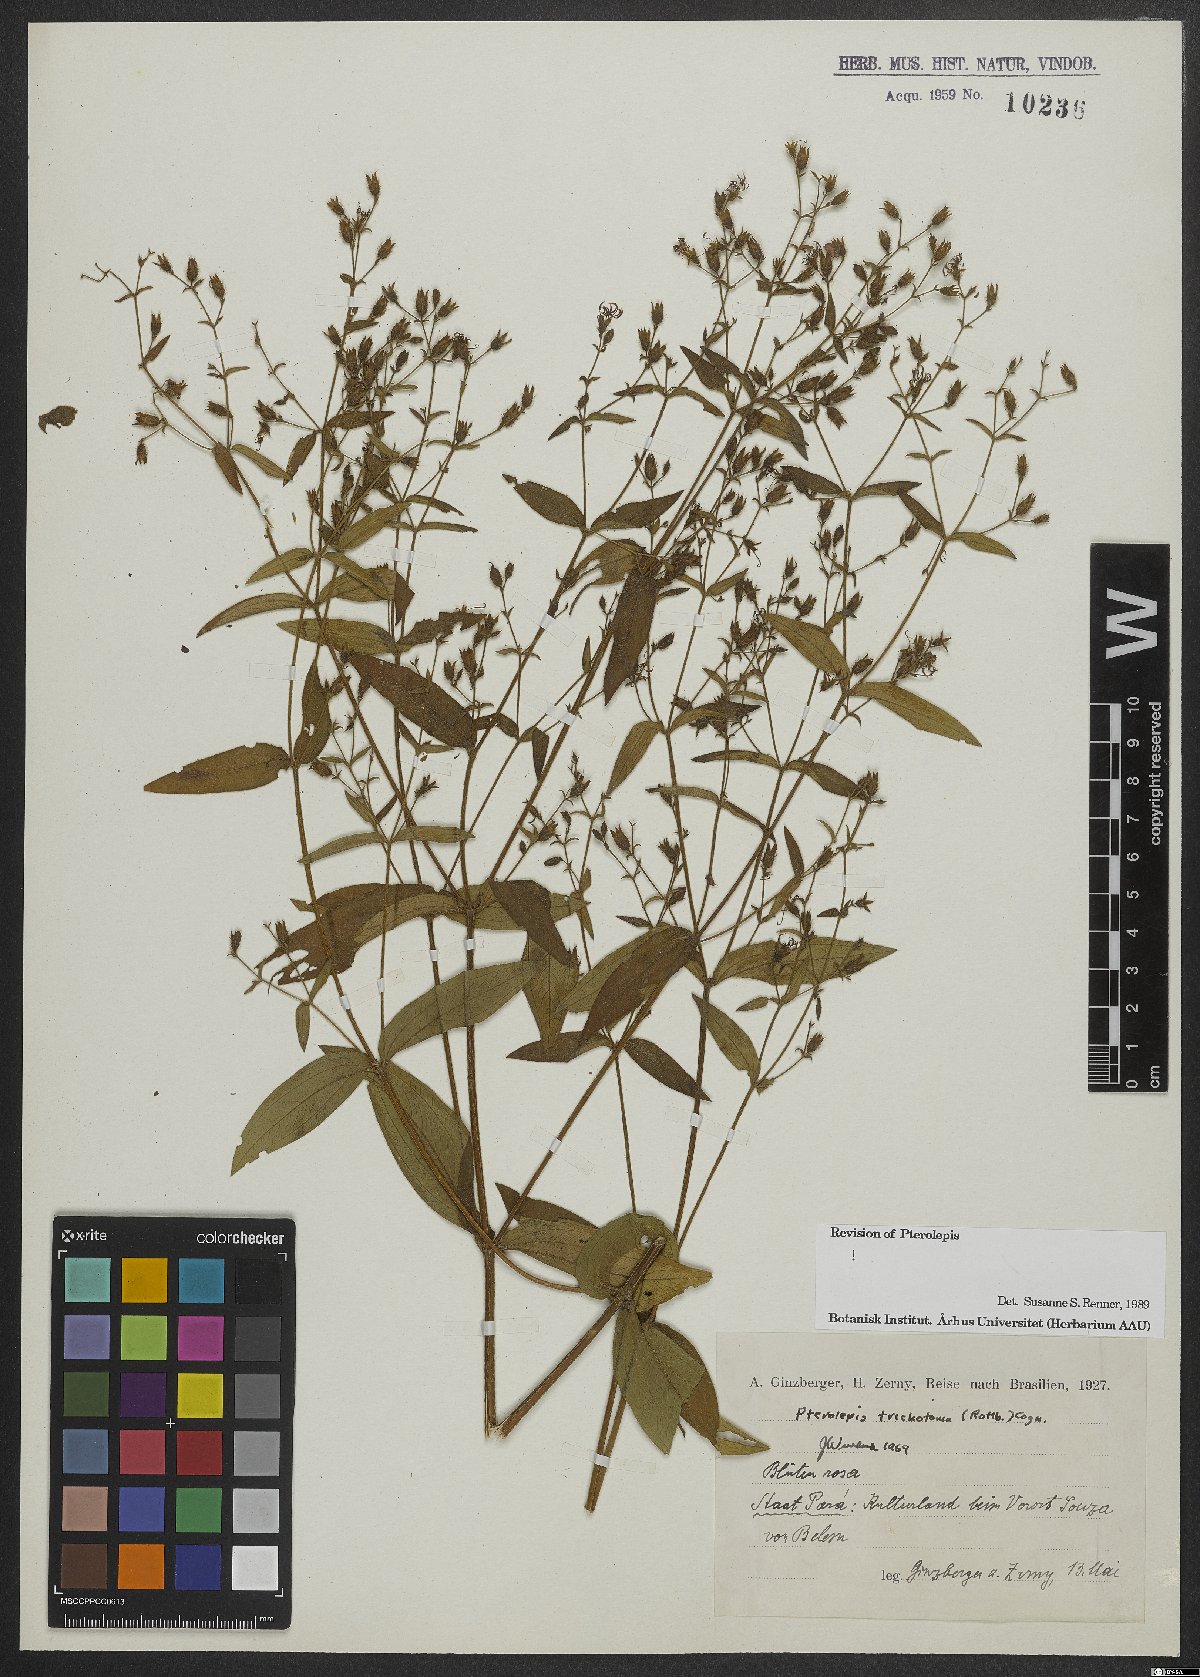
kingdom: Plantae
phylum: Tracheophyta
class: Magnoliopsida
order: Myrtales
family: Melastomataceae
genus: Pterolepis
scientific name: Pterolepis trichotoma
